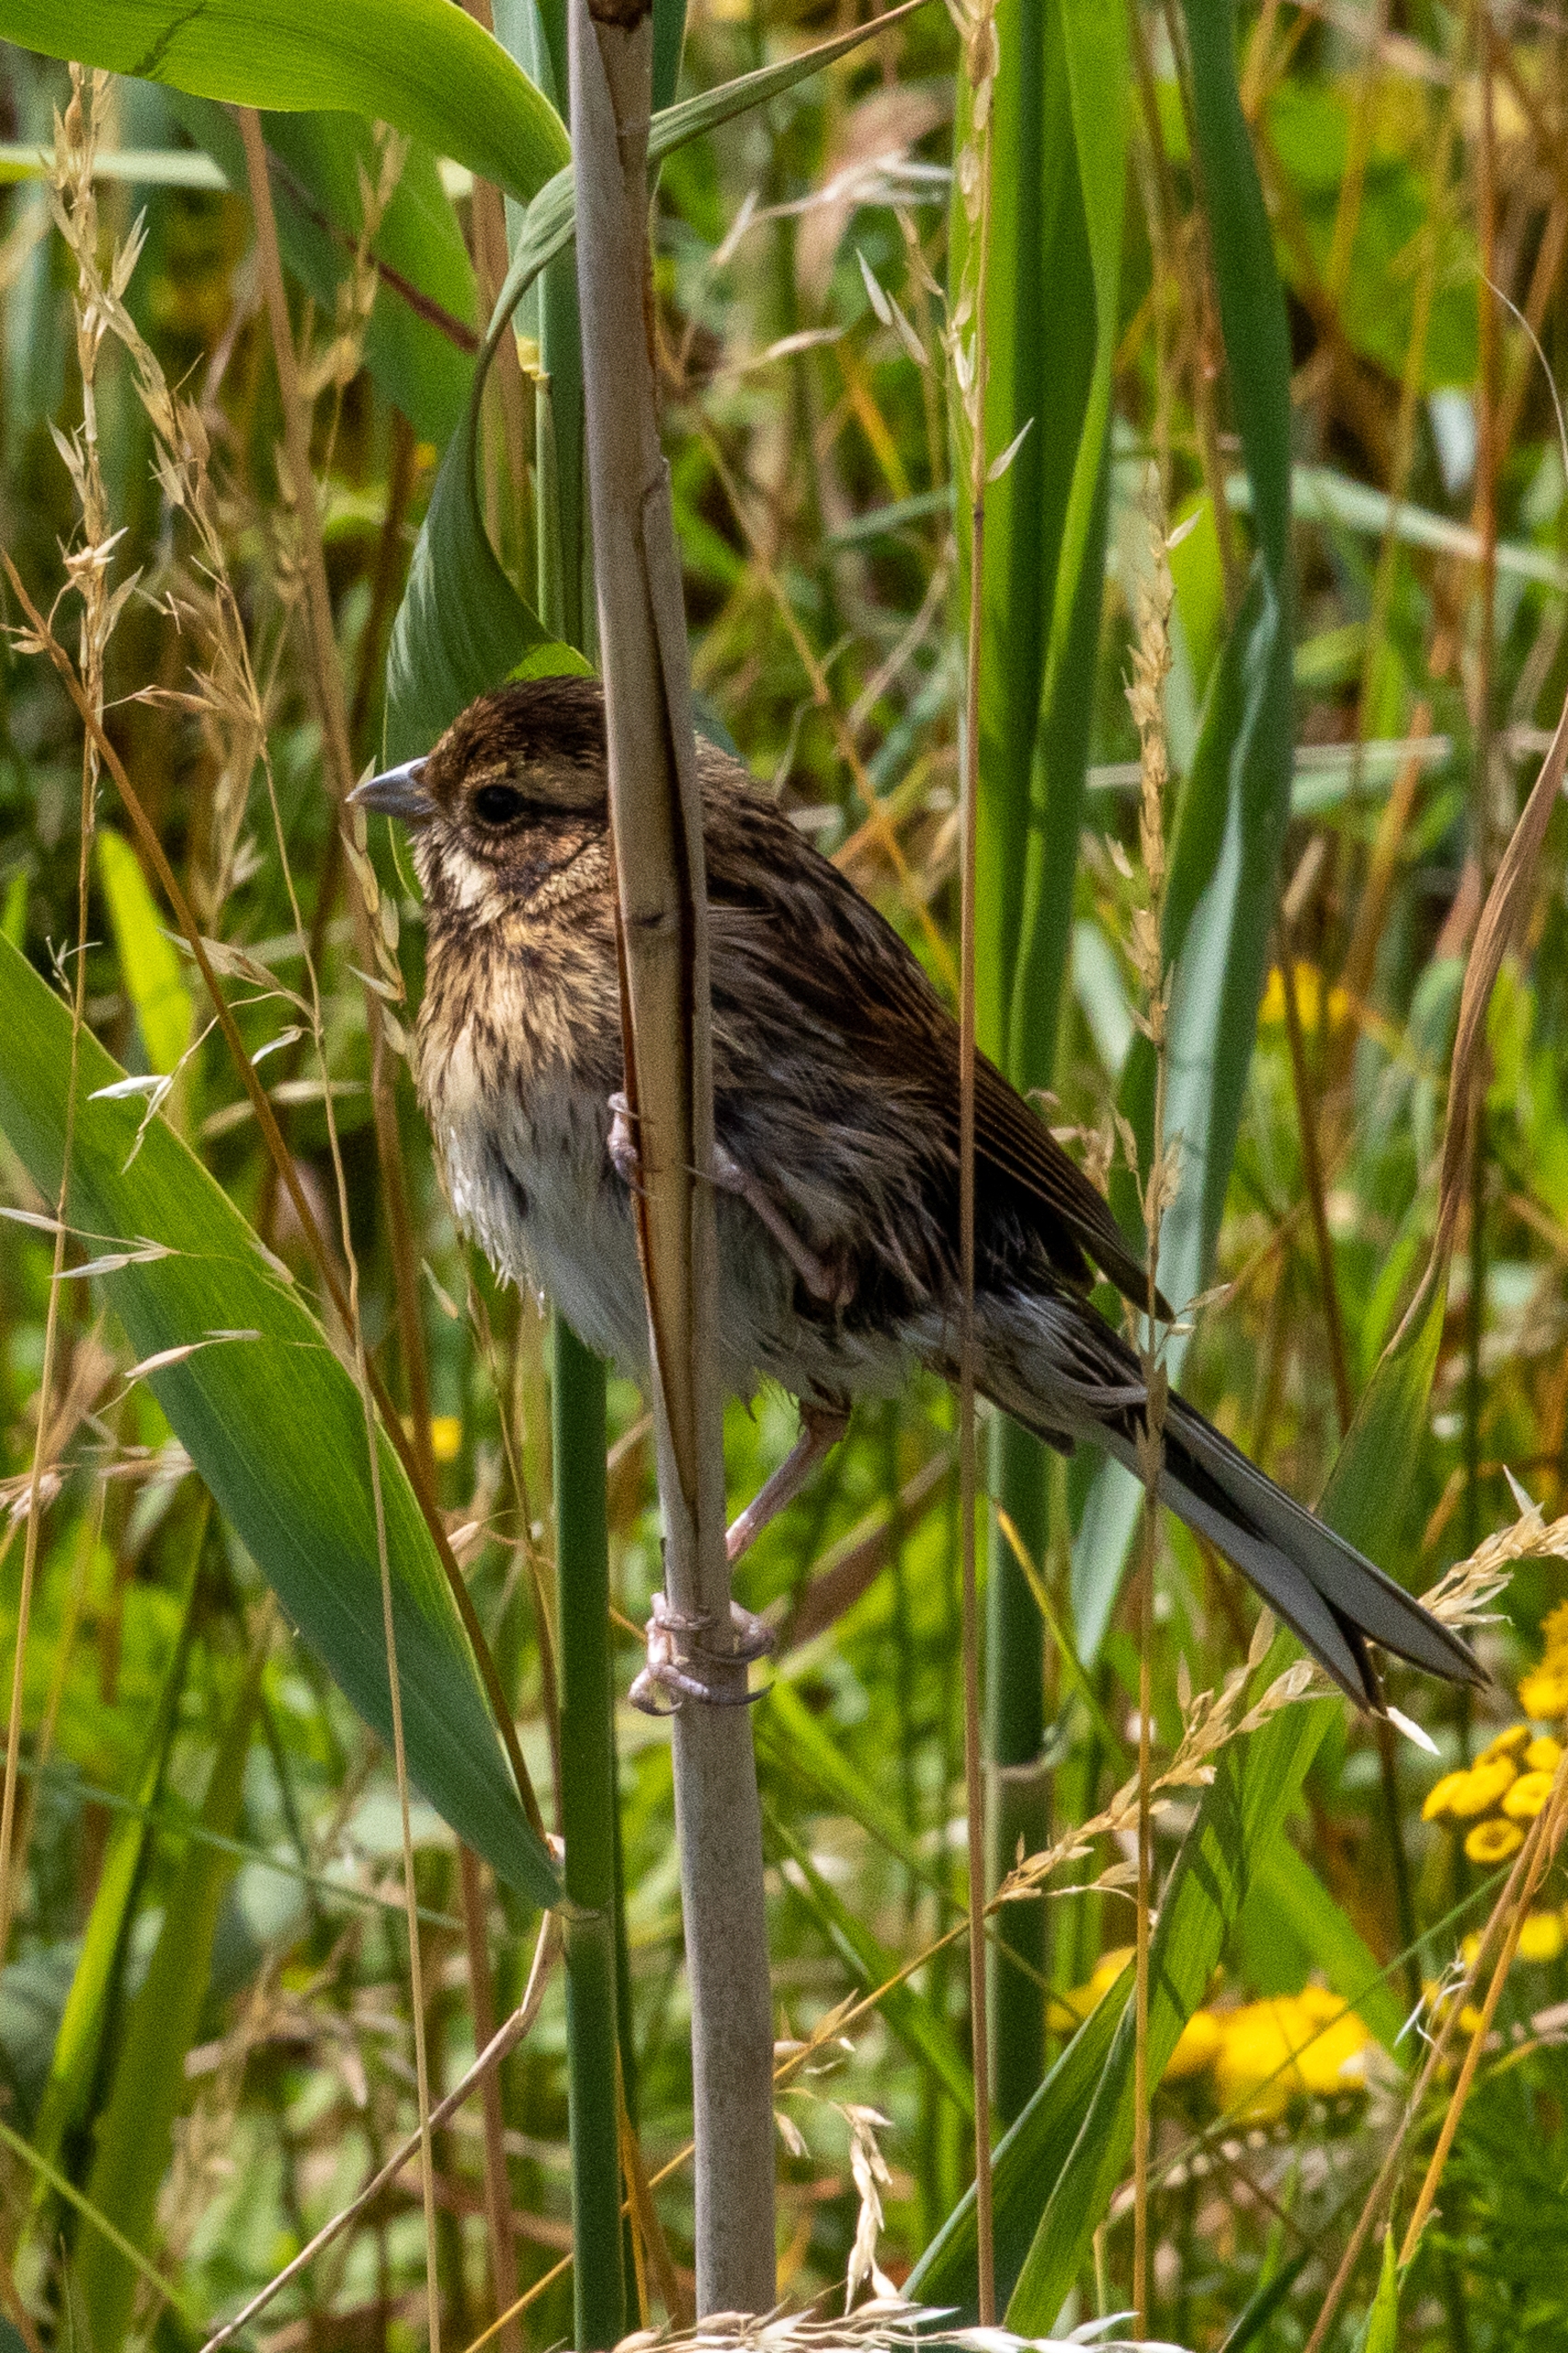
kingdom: Animalia
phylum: Chordata
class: Aves
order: Passeriformes
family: Emberizidae
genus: Emberiza
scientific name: Emberiza schoeniclus
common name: Rørspurv
